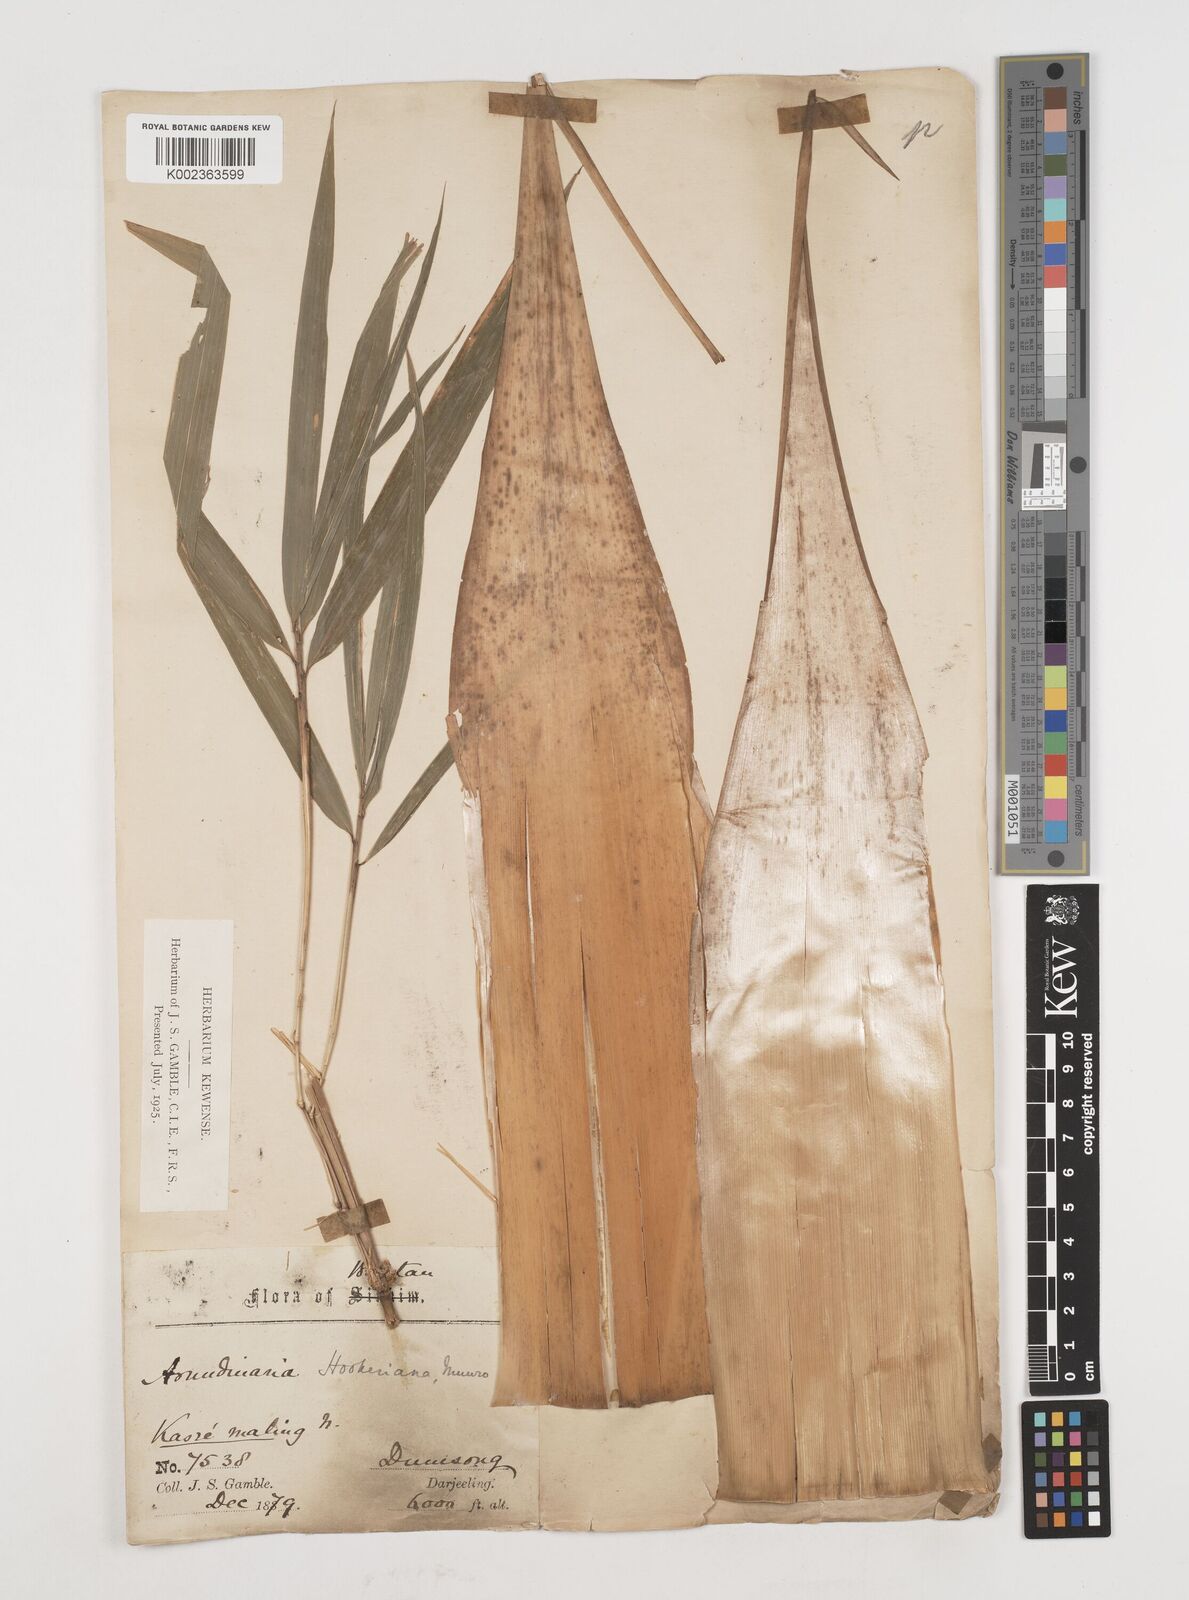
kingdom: Plantae
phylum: Tracheophyta
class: Liliopsida
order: Poales
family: Poaceae
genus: Himalayacalamus
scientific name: Himalayacalamus hookerianus
